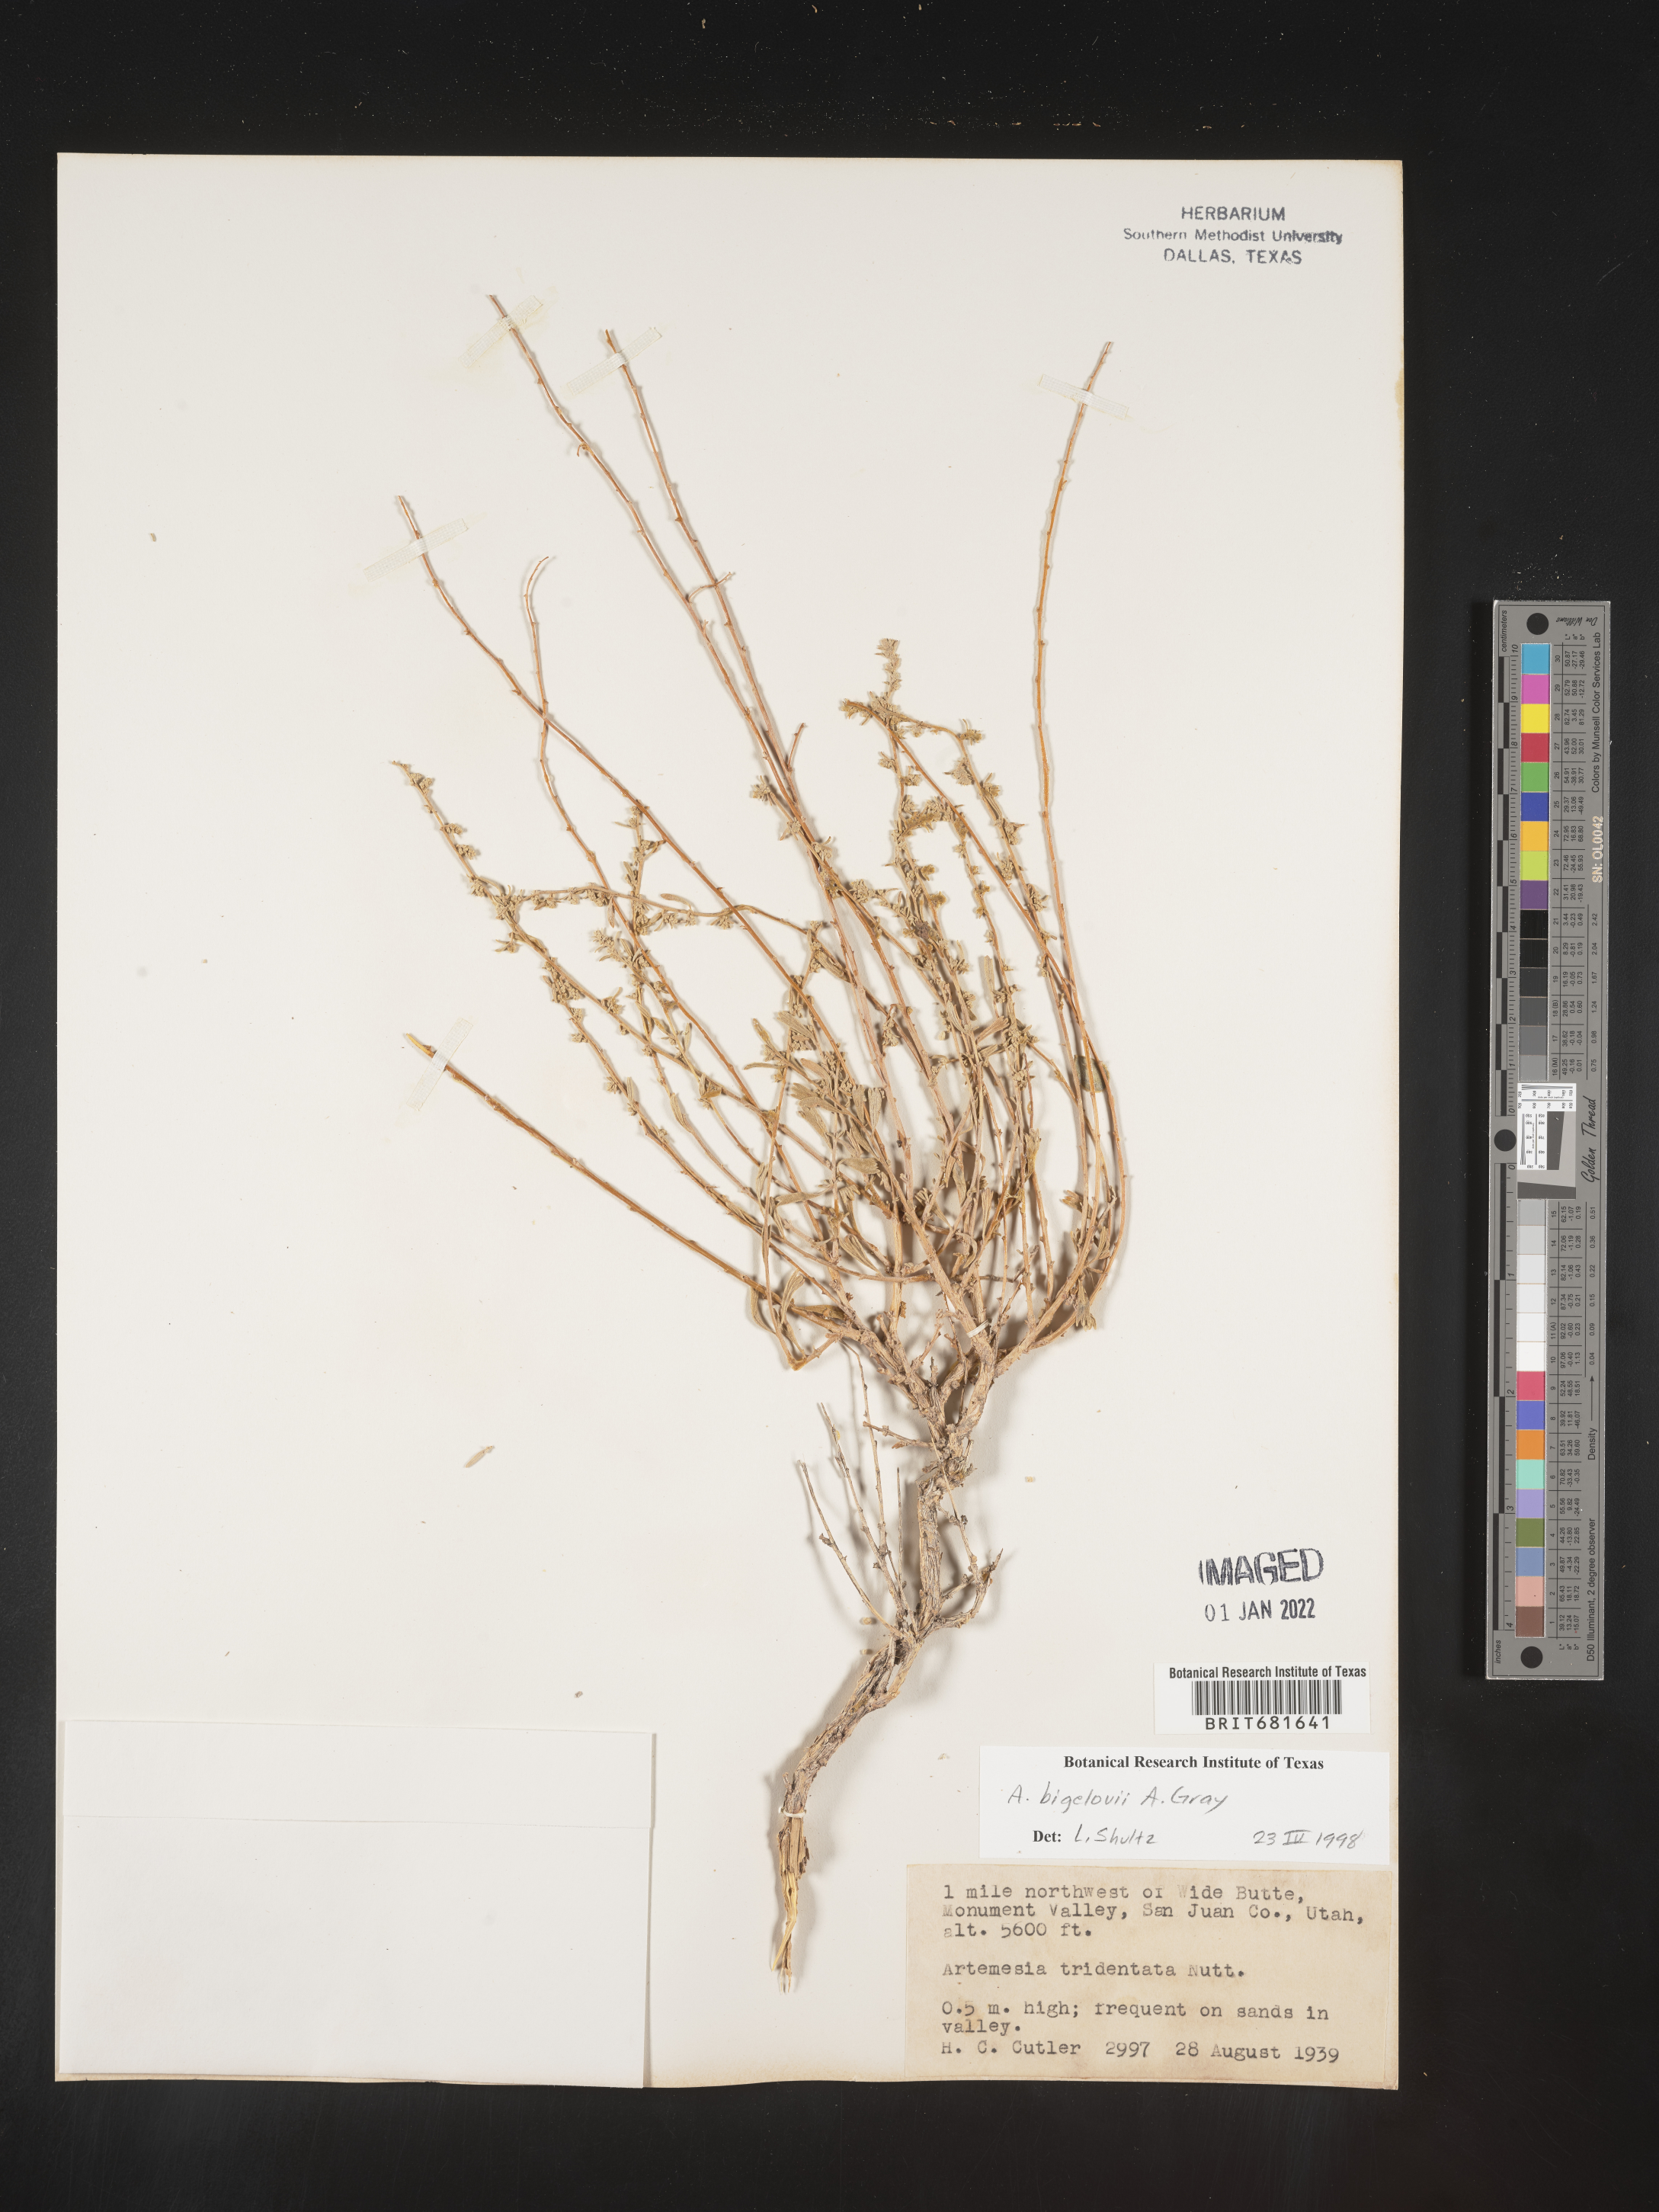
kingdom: Plantae
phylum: Tracheophyta
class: Magnoliopsida
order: Asterales
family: Asteraceae
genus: Artemisia
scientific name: Artemisia bigelovii
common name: Bigelow sagebrush
